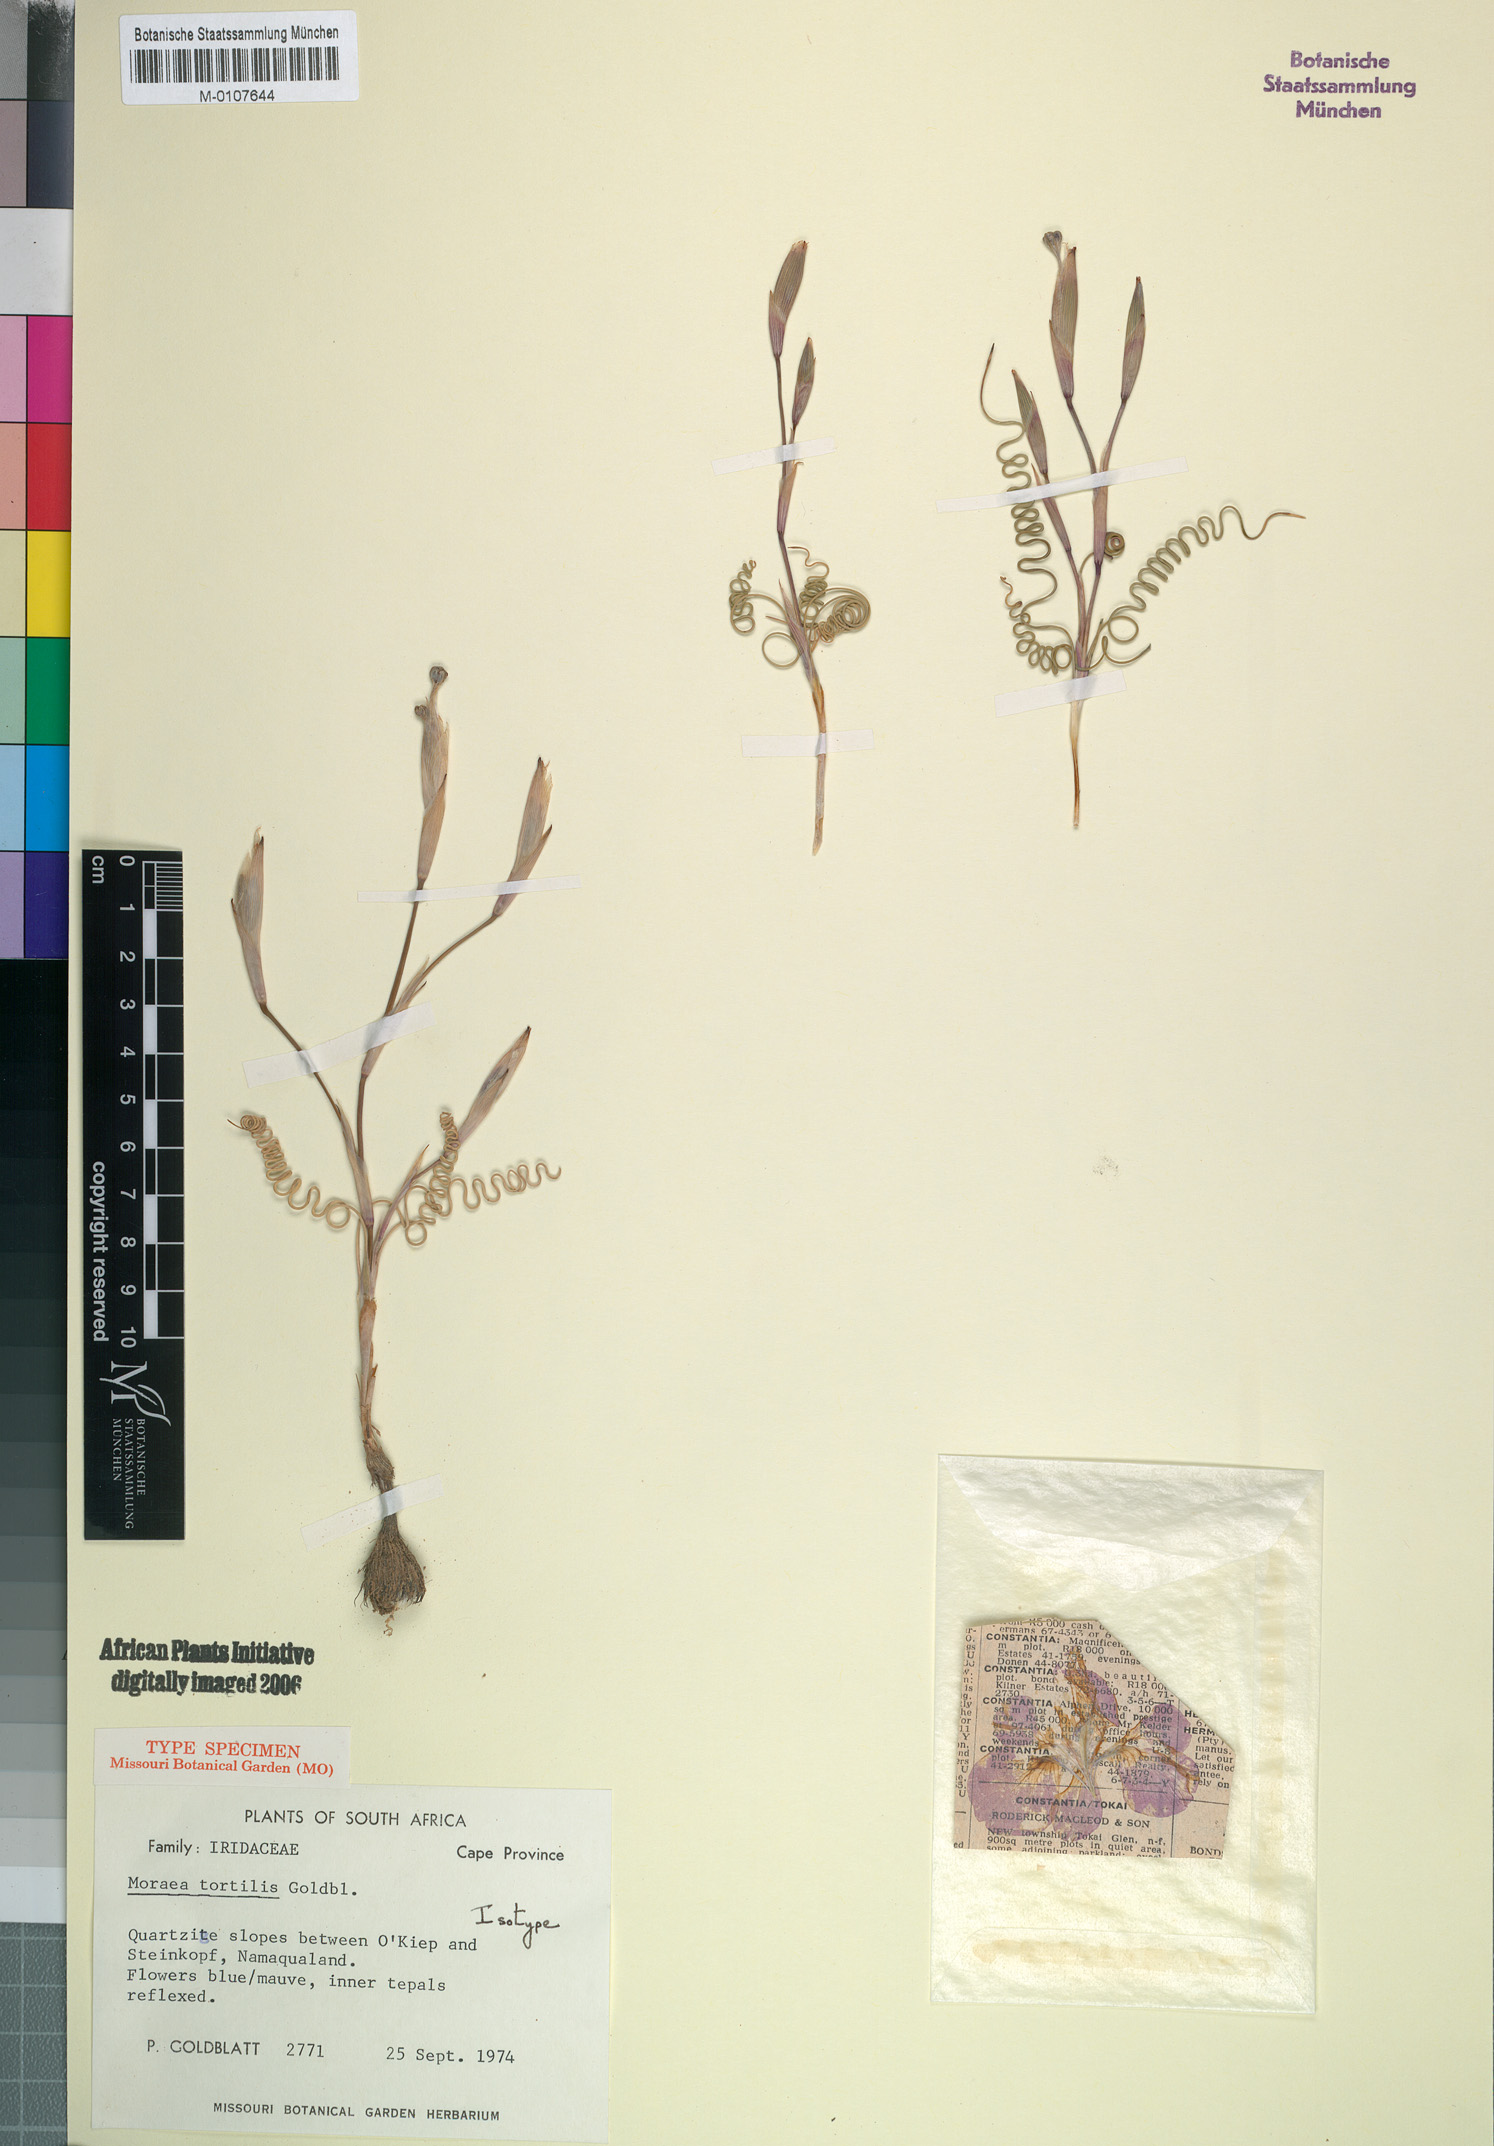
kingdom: Plantae
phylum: Tracheophyta
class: Liliopsida
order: Asparagales
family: Iridaceae
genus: Moraea
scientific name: Moraea tortilis
